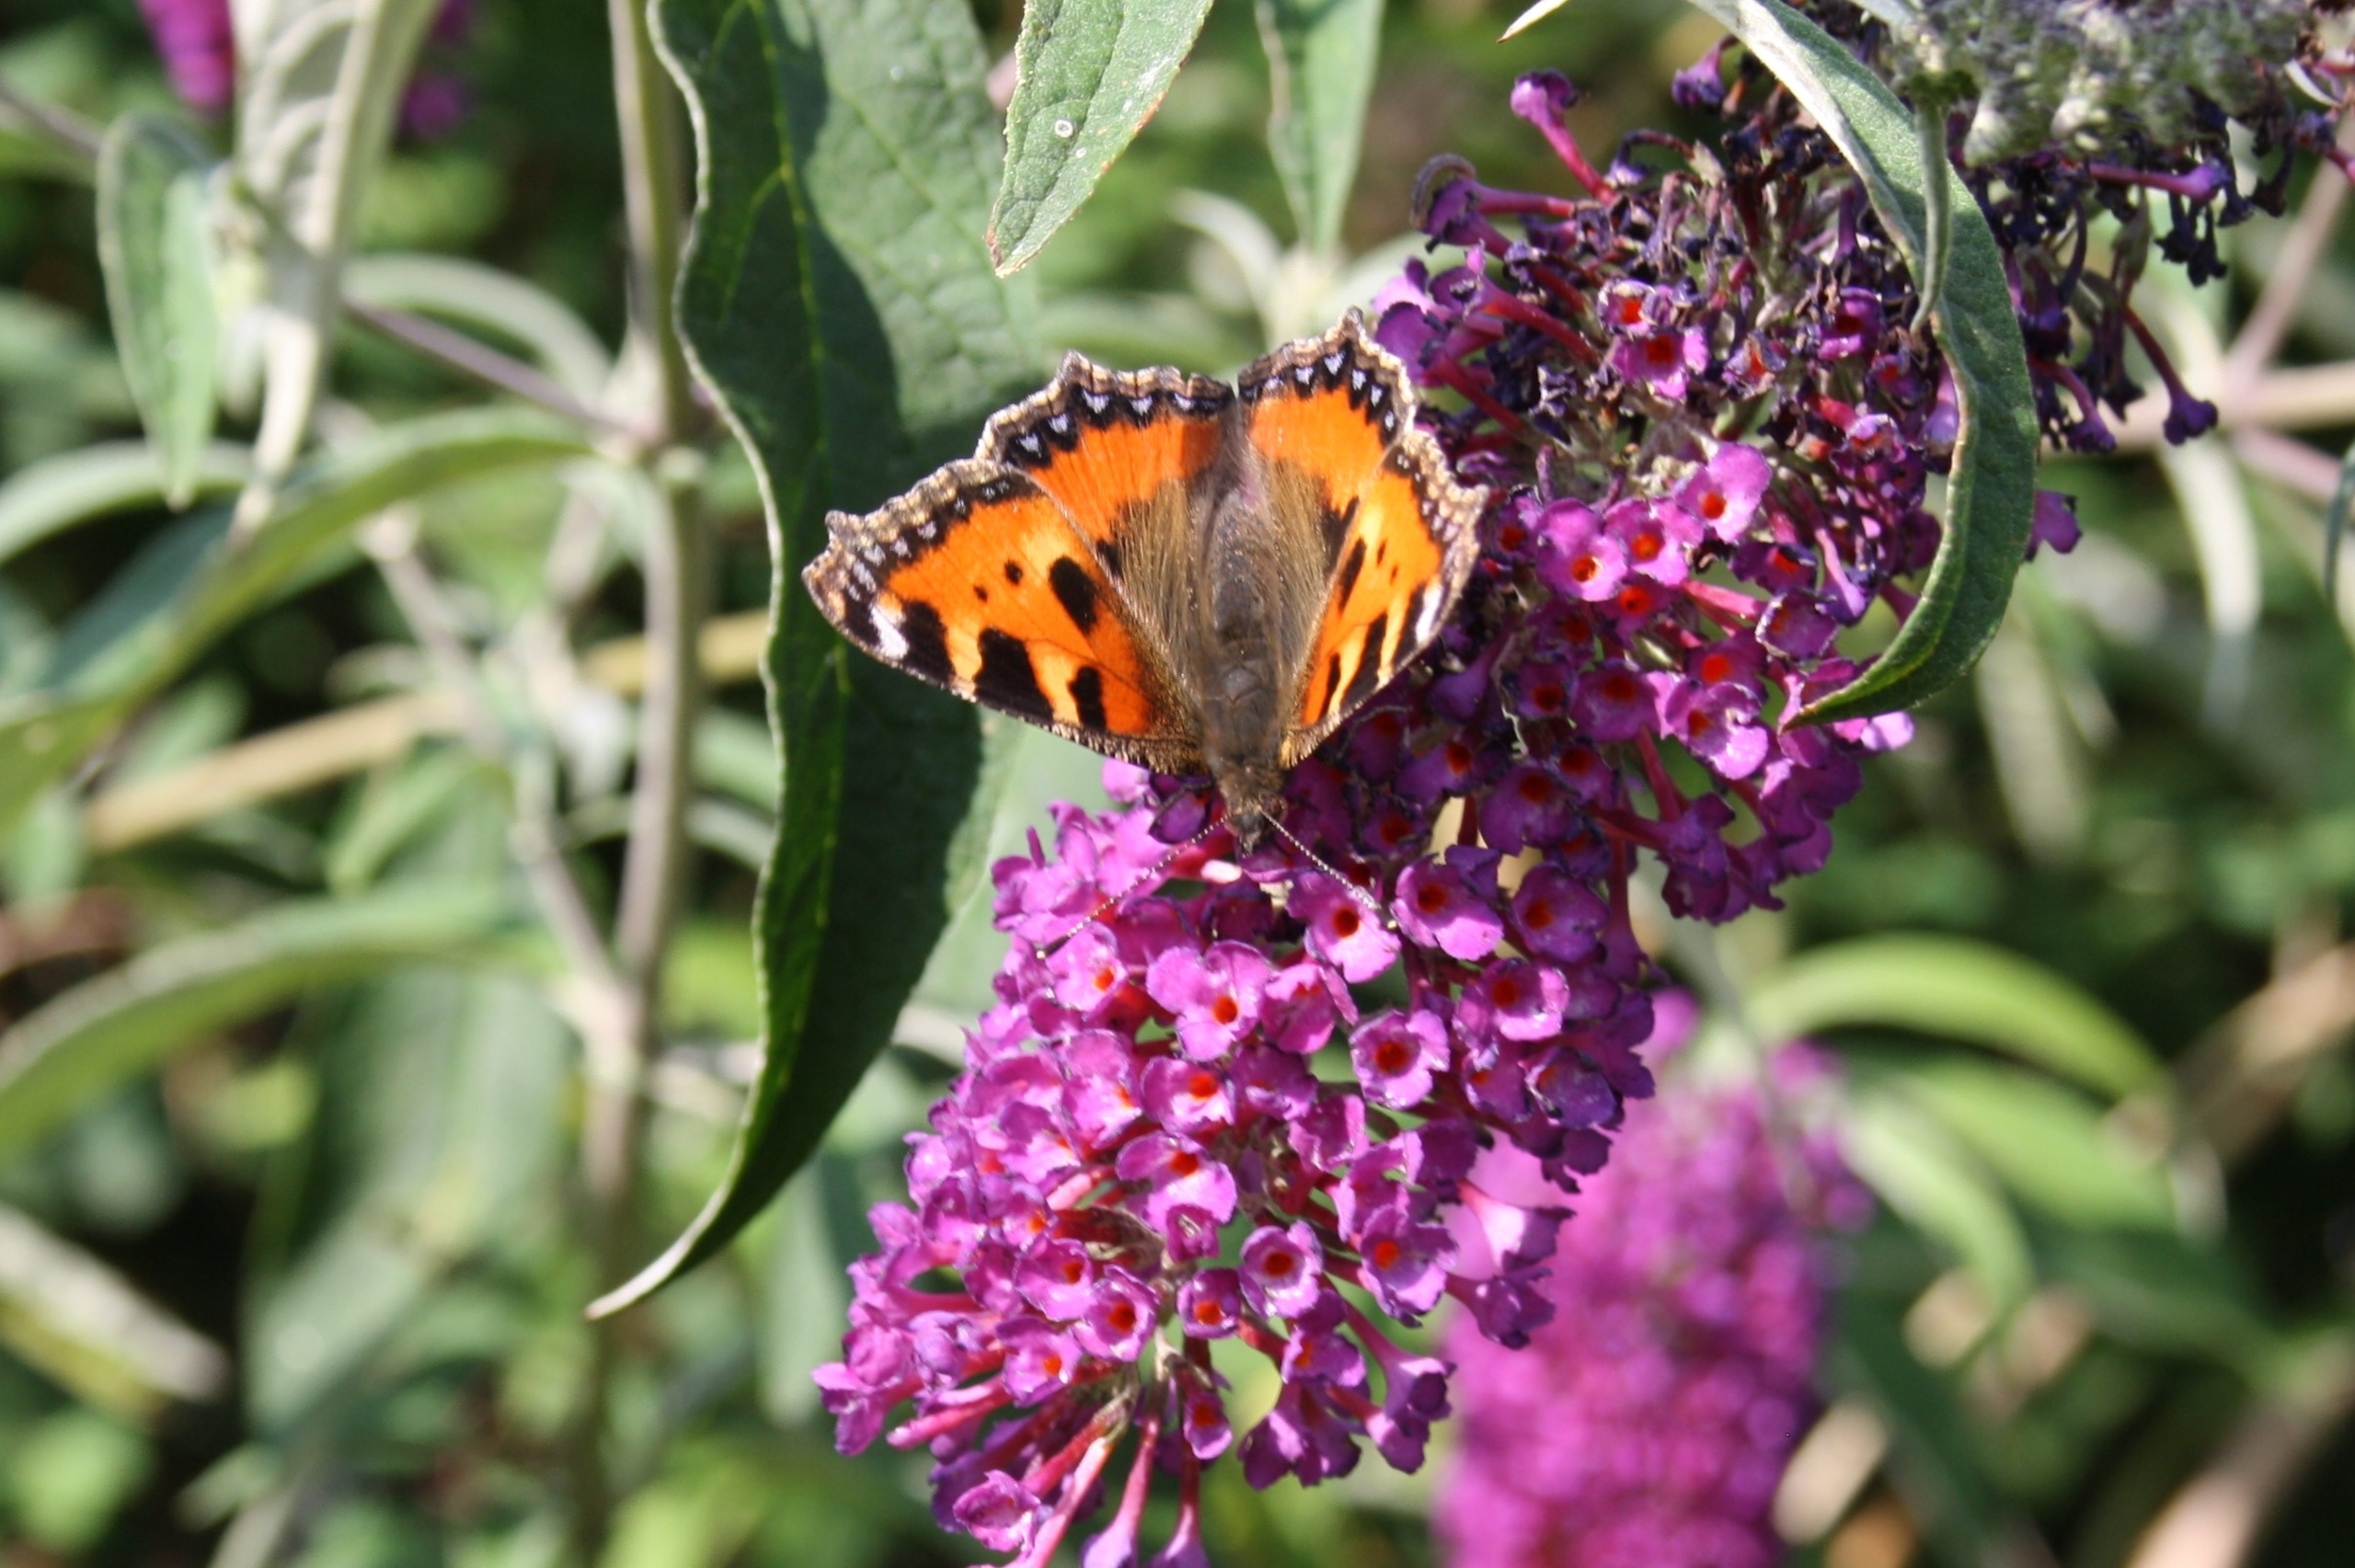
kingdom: Animalia
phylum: Arthropoda
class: Insecta
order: Lepidoptera
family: Nymphalidae
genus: Aglais
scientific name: Aglais urticae
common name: Nældens takvinge
